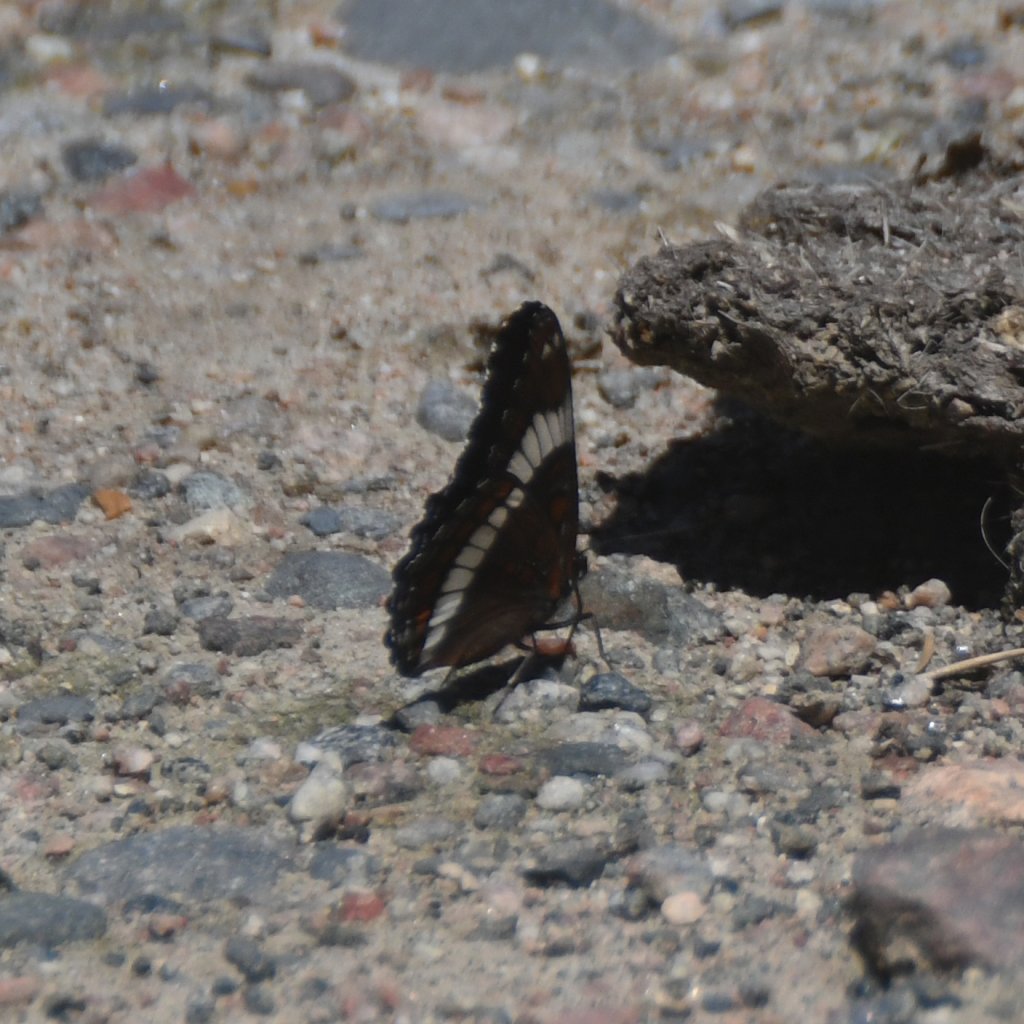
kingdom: Animalia
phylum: Arthropoda
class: Insecta
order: Lepidoptera
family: Nymphalidae
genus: Limenitis
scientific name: Limenitis arthemis
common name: Red-spotted Admiral
